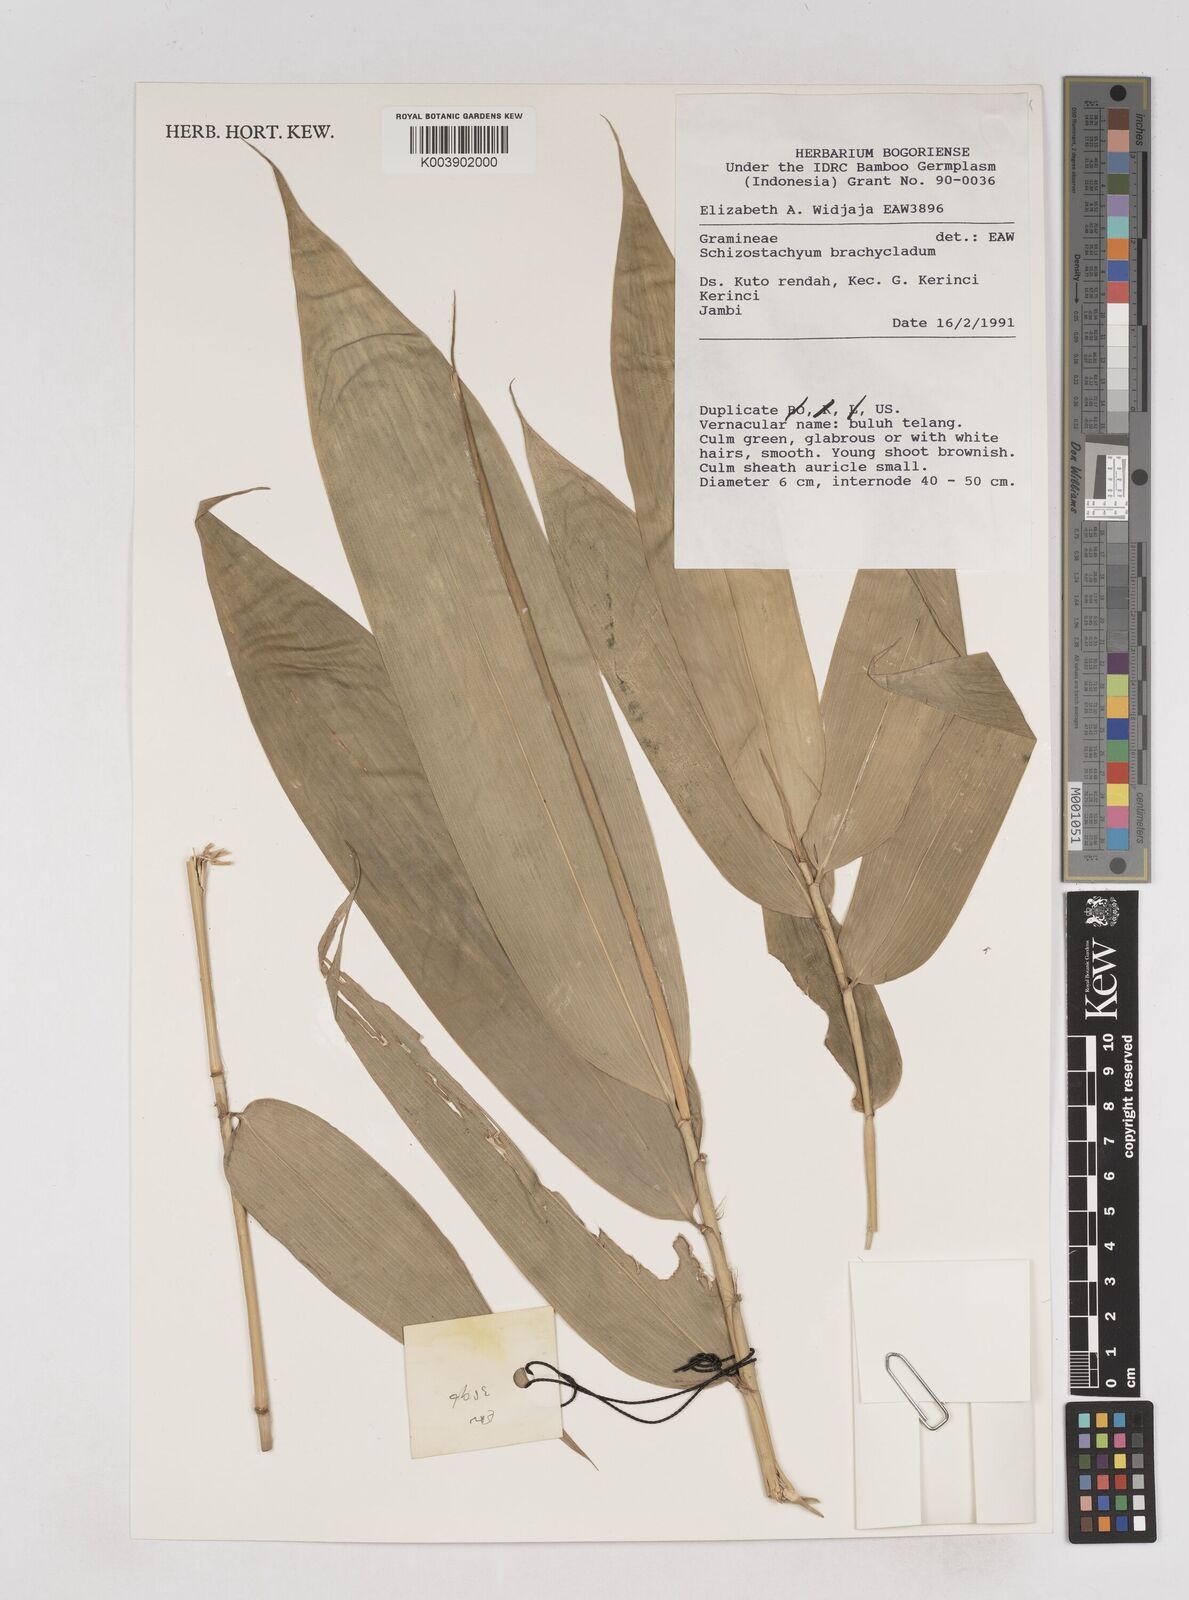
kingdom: Plantae
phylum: Tracheophyta
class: Liliopsida
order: Poales
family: Poaceae
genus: Schizostachyum
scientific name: Schizostachyum brachycladum
